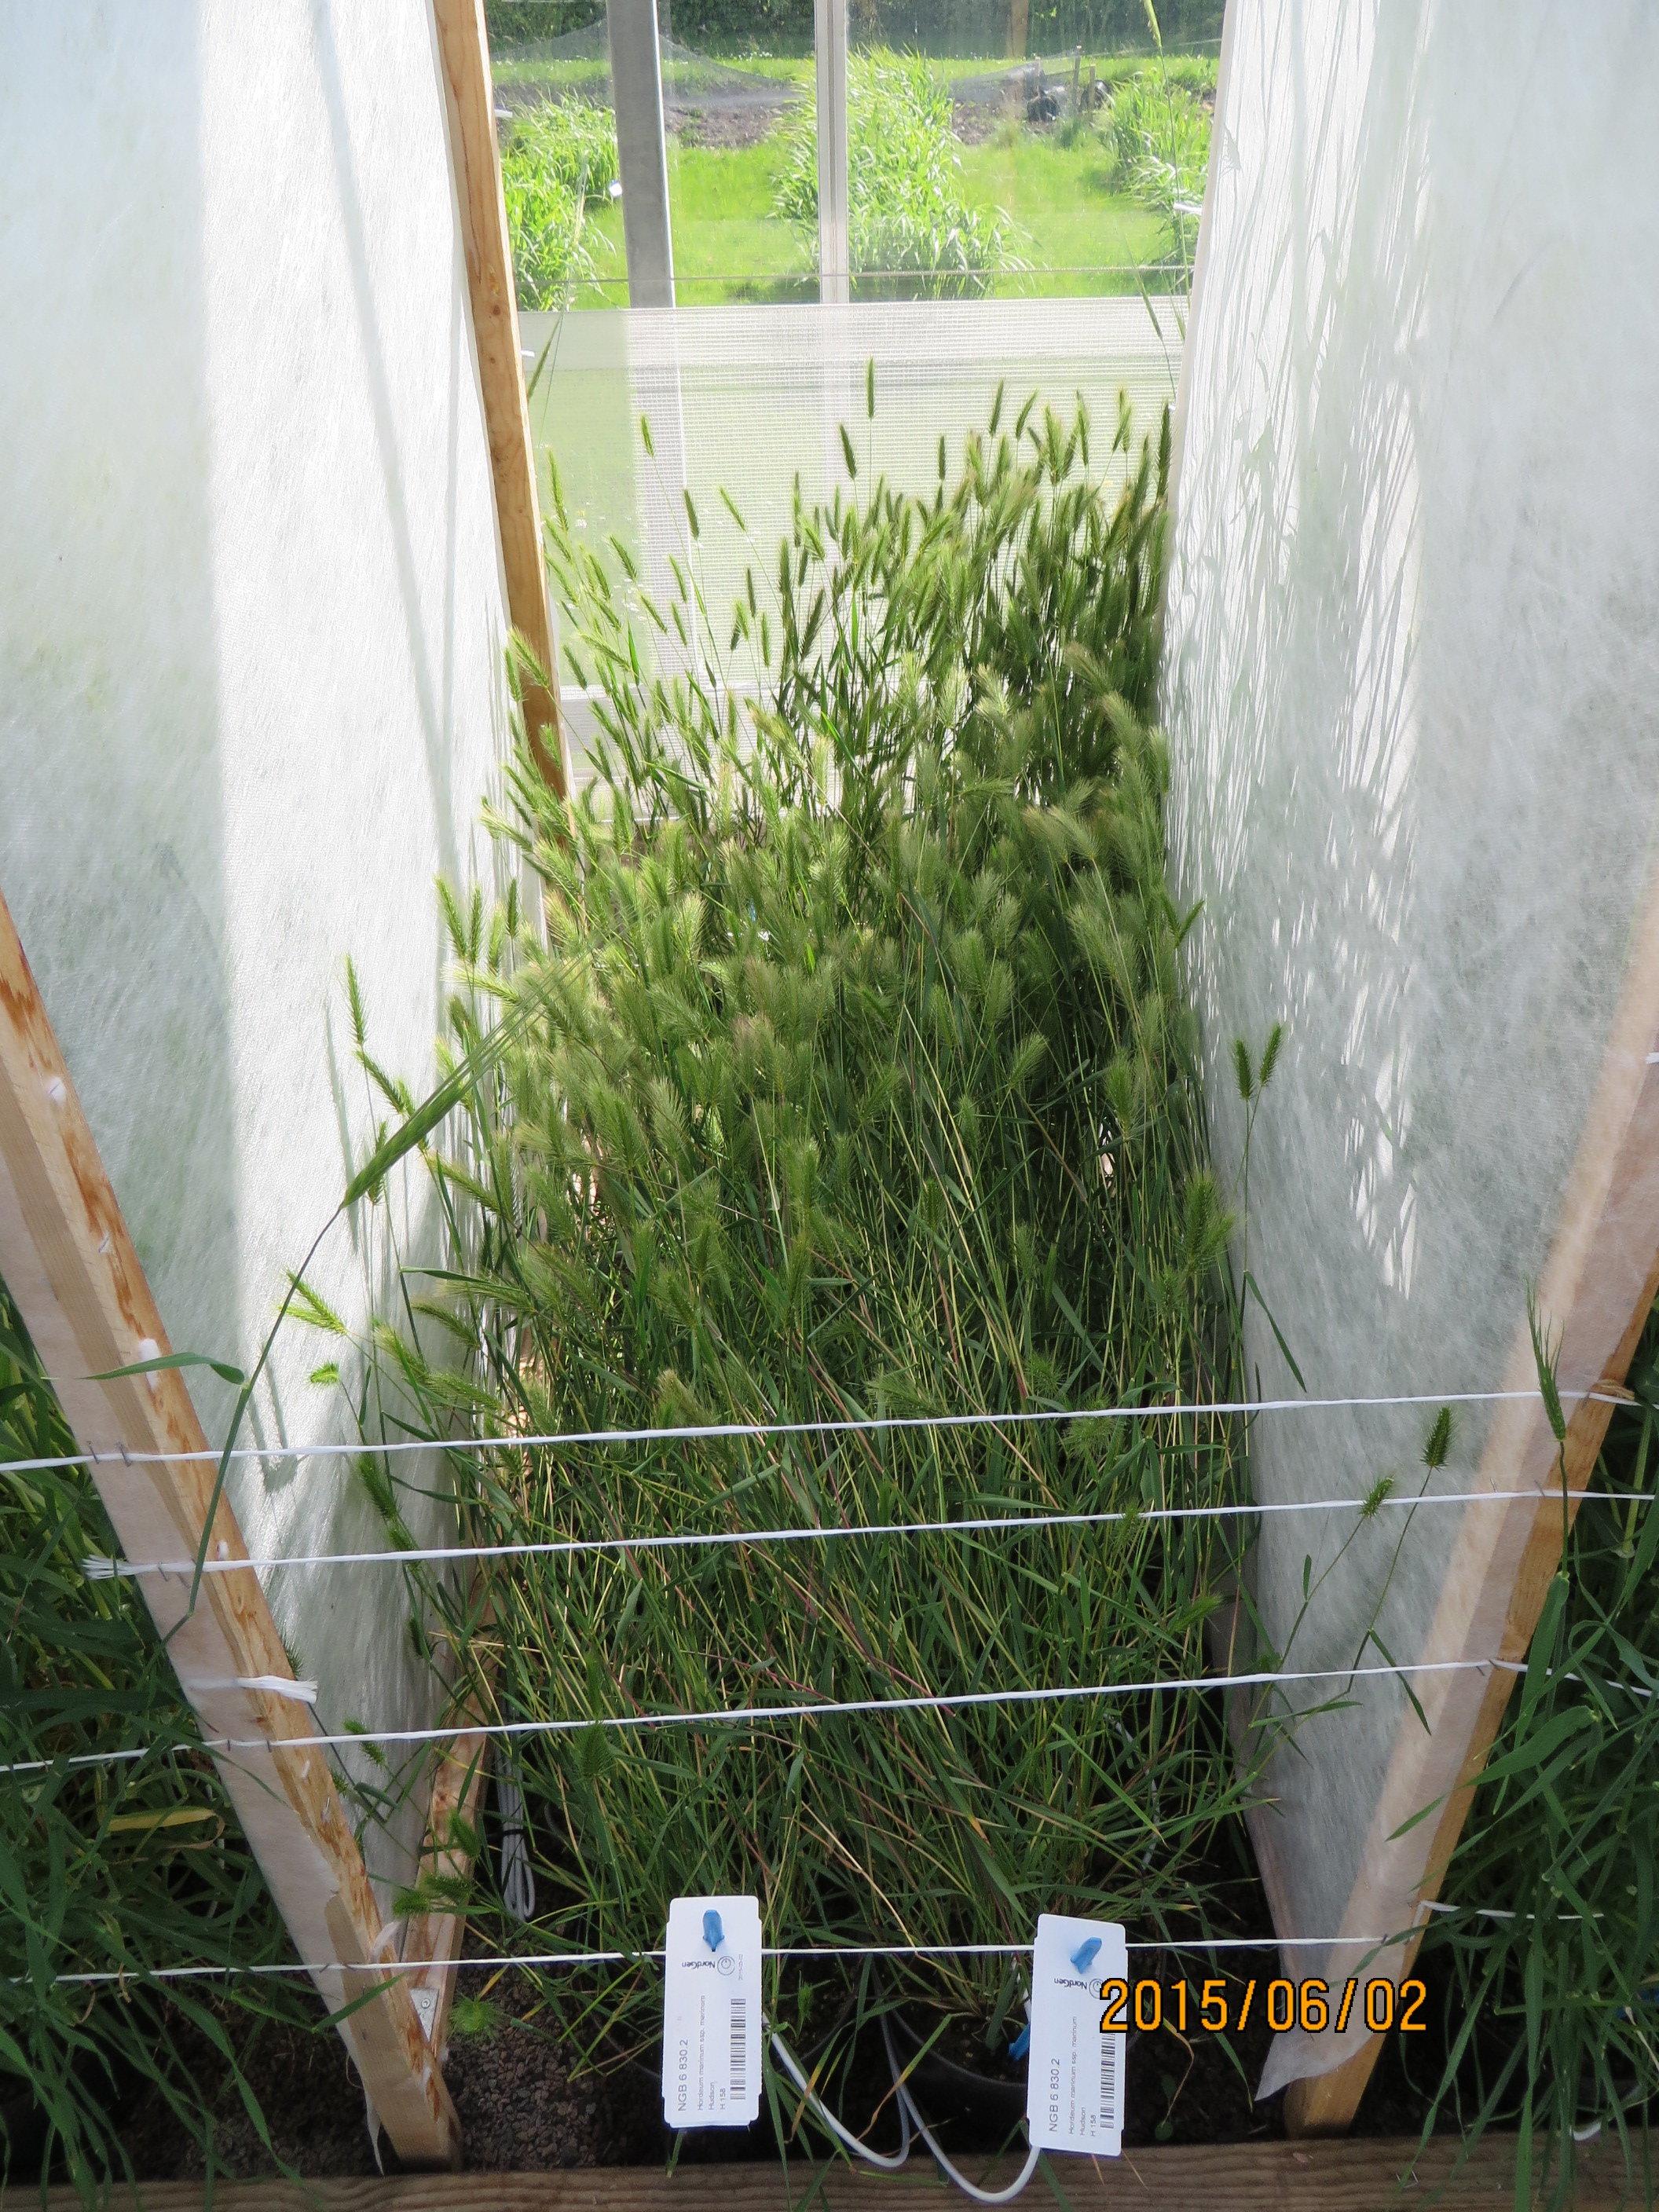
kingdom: Plantae
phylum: Tracheophyta
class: Liliopsida
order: Poales
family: Poaceae
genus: Hordeum
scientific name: Hordeum marinum
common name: Sea barley
